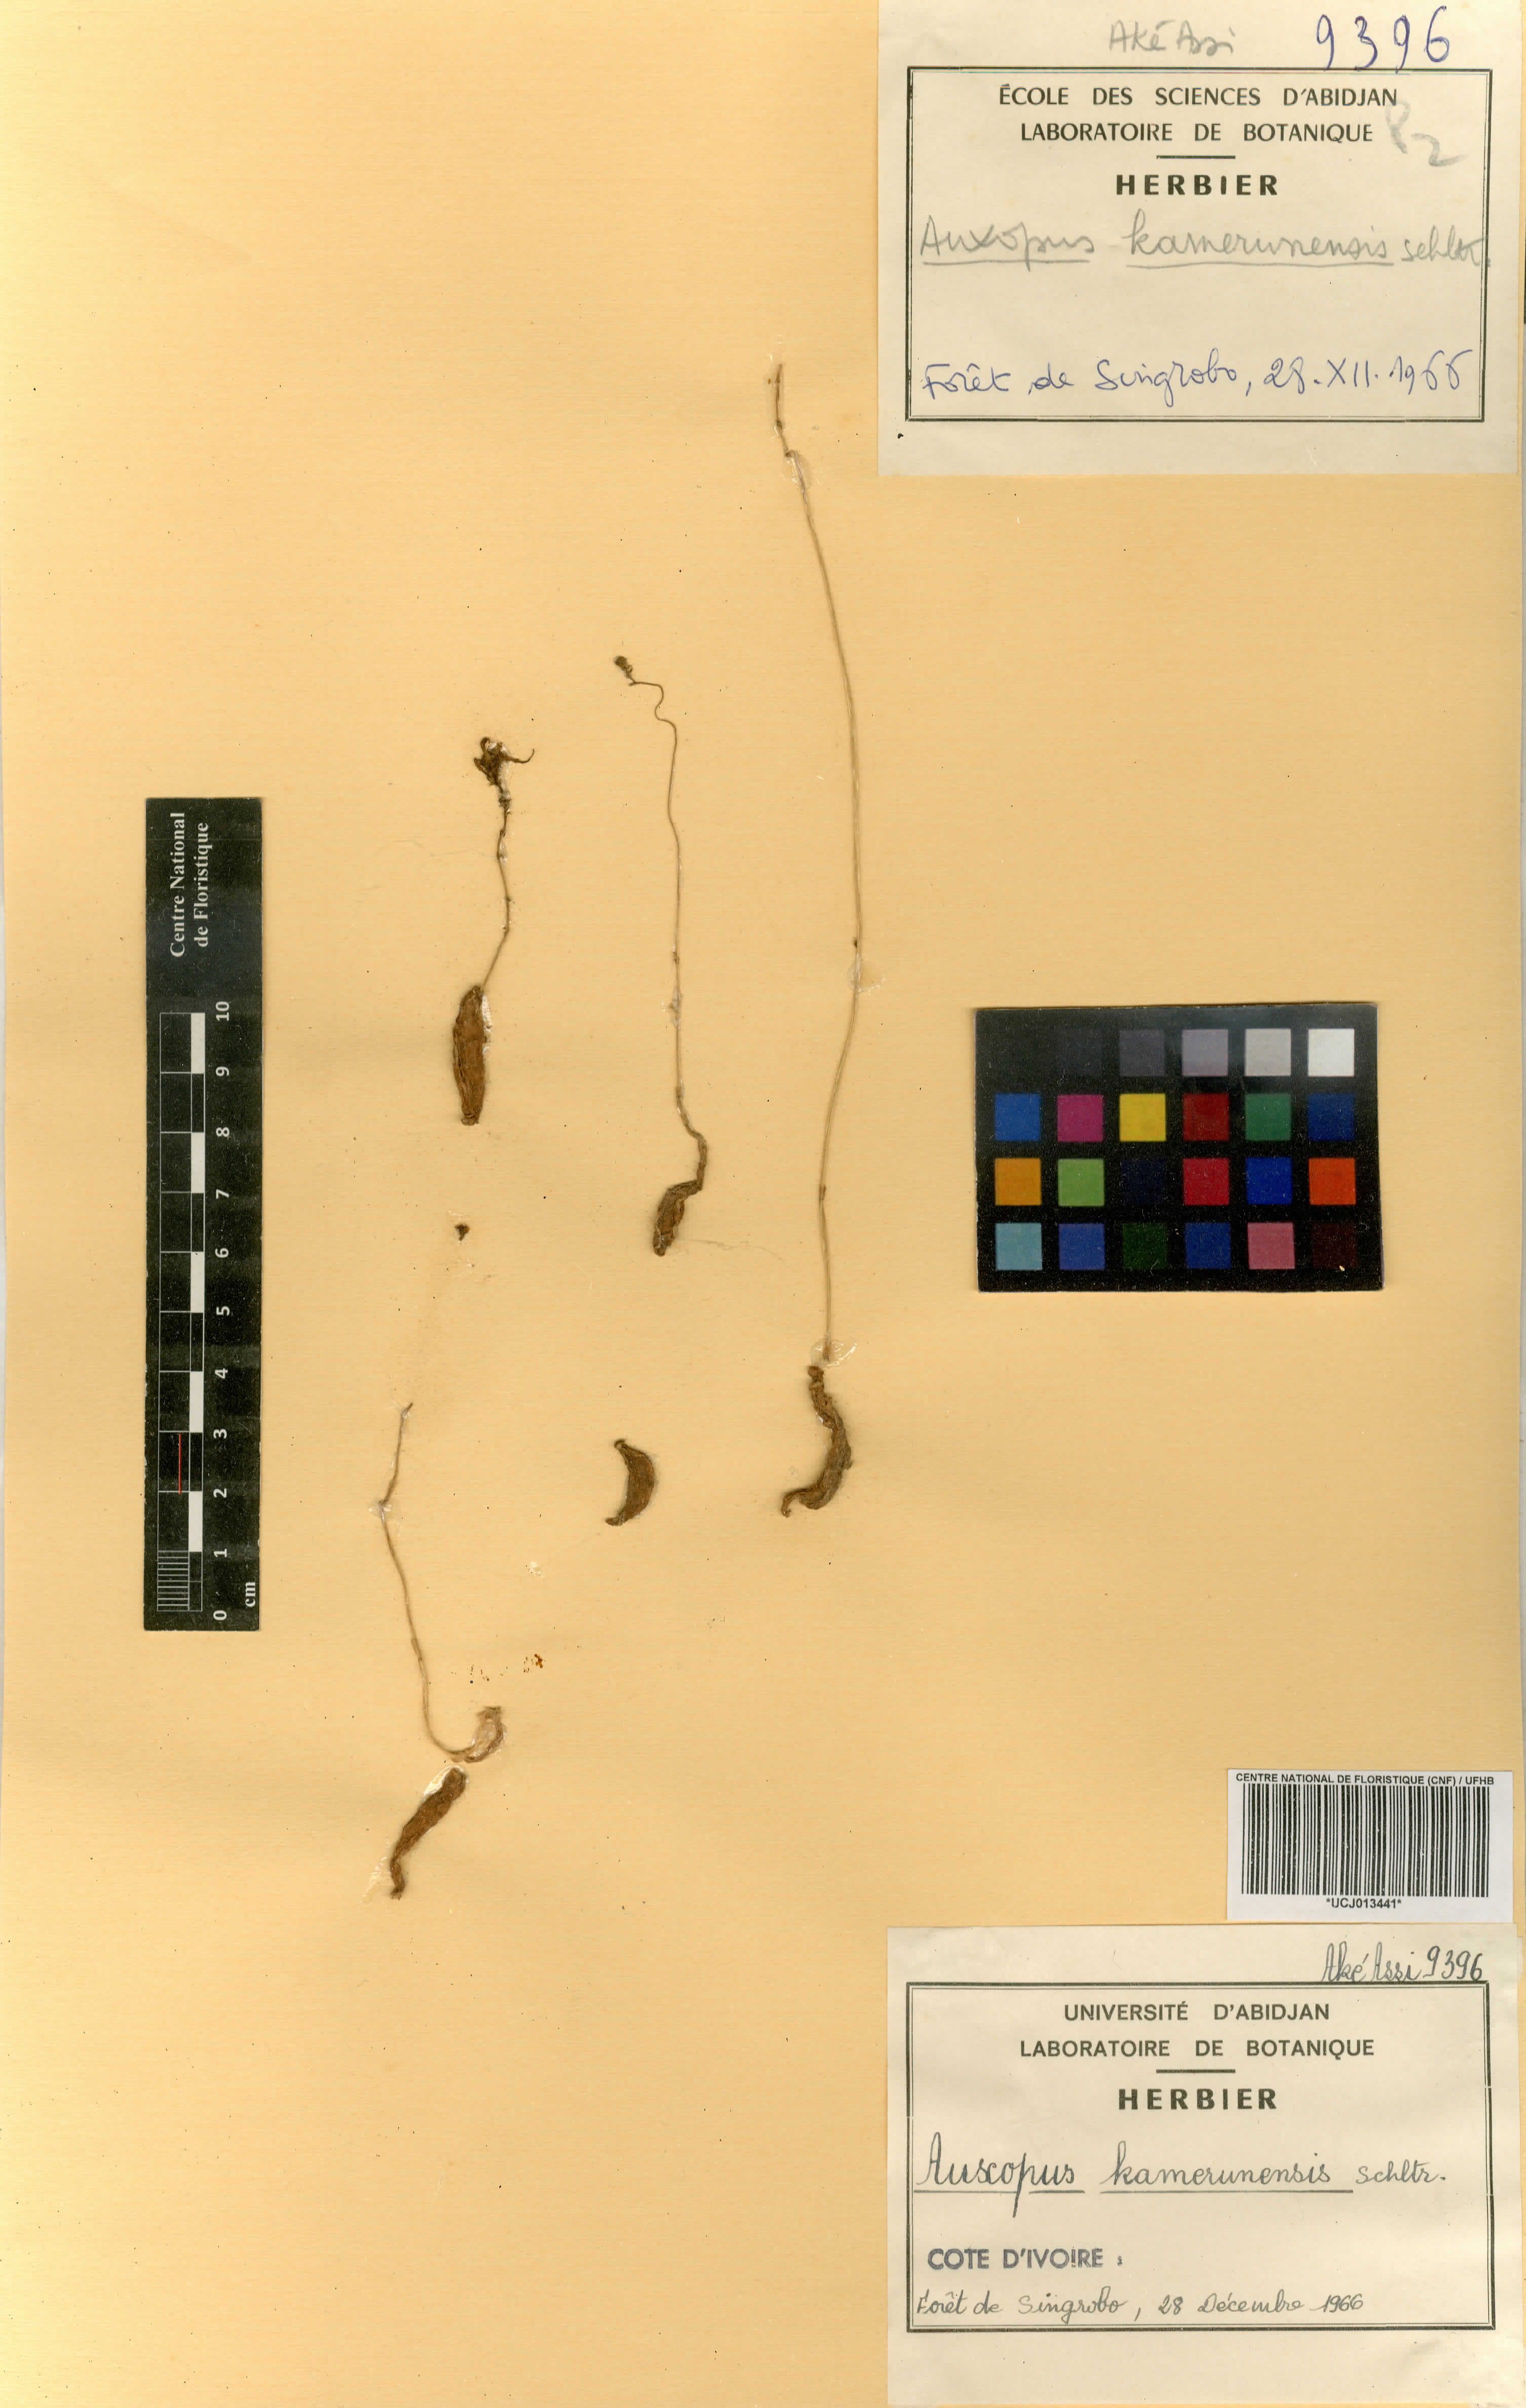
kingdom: Plantae
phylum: Tracheophyta
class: Liliopsida
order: Asparagales
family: Orchidaceae
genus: Auxopus
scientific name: Auxopus kamerunensis
